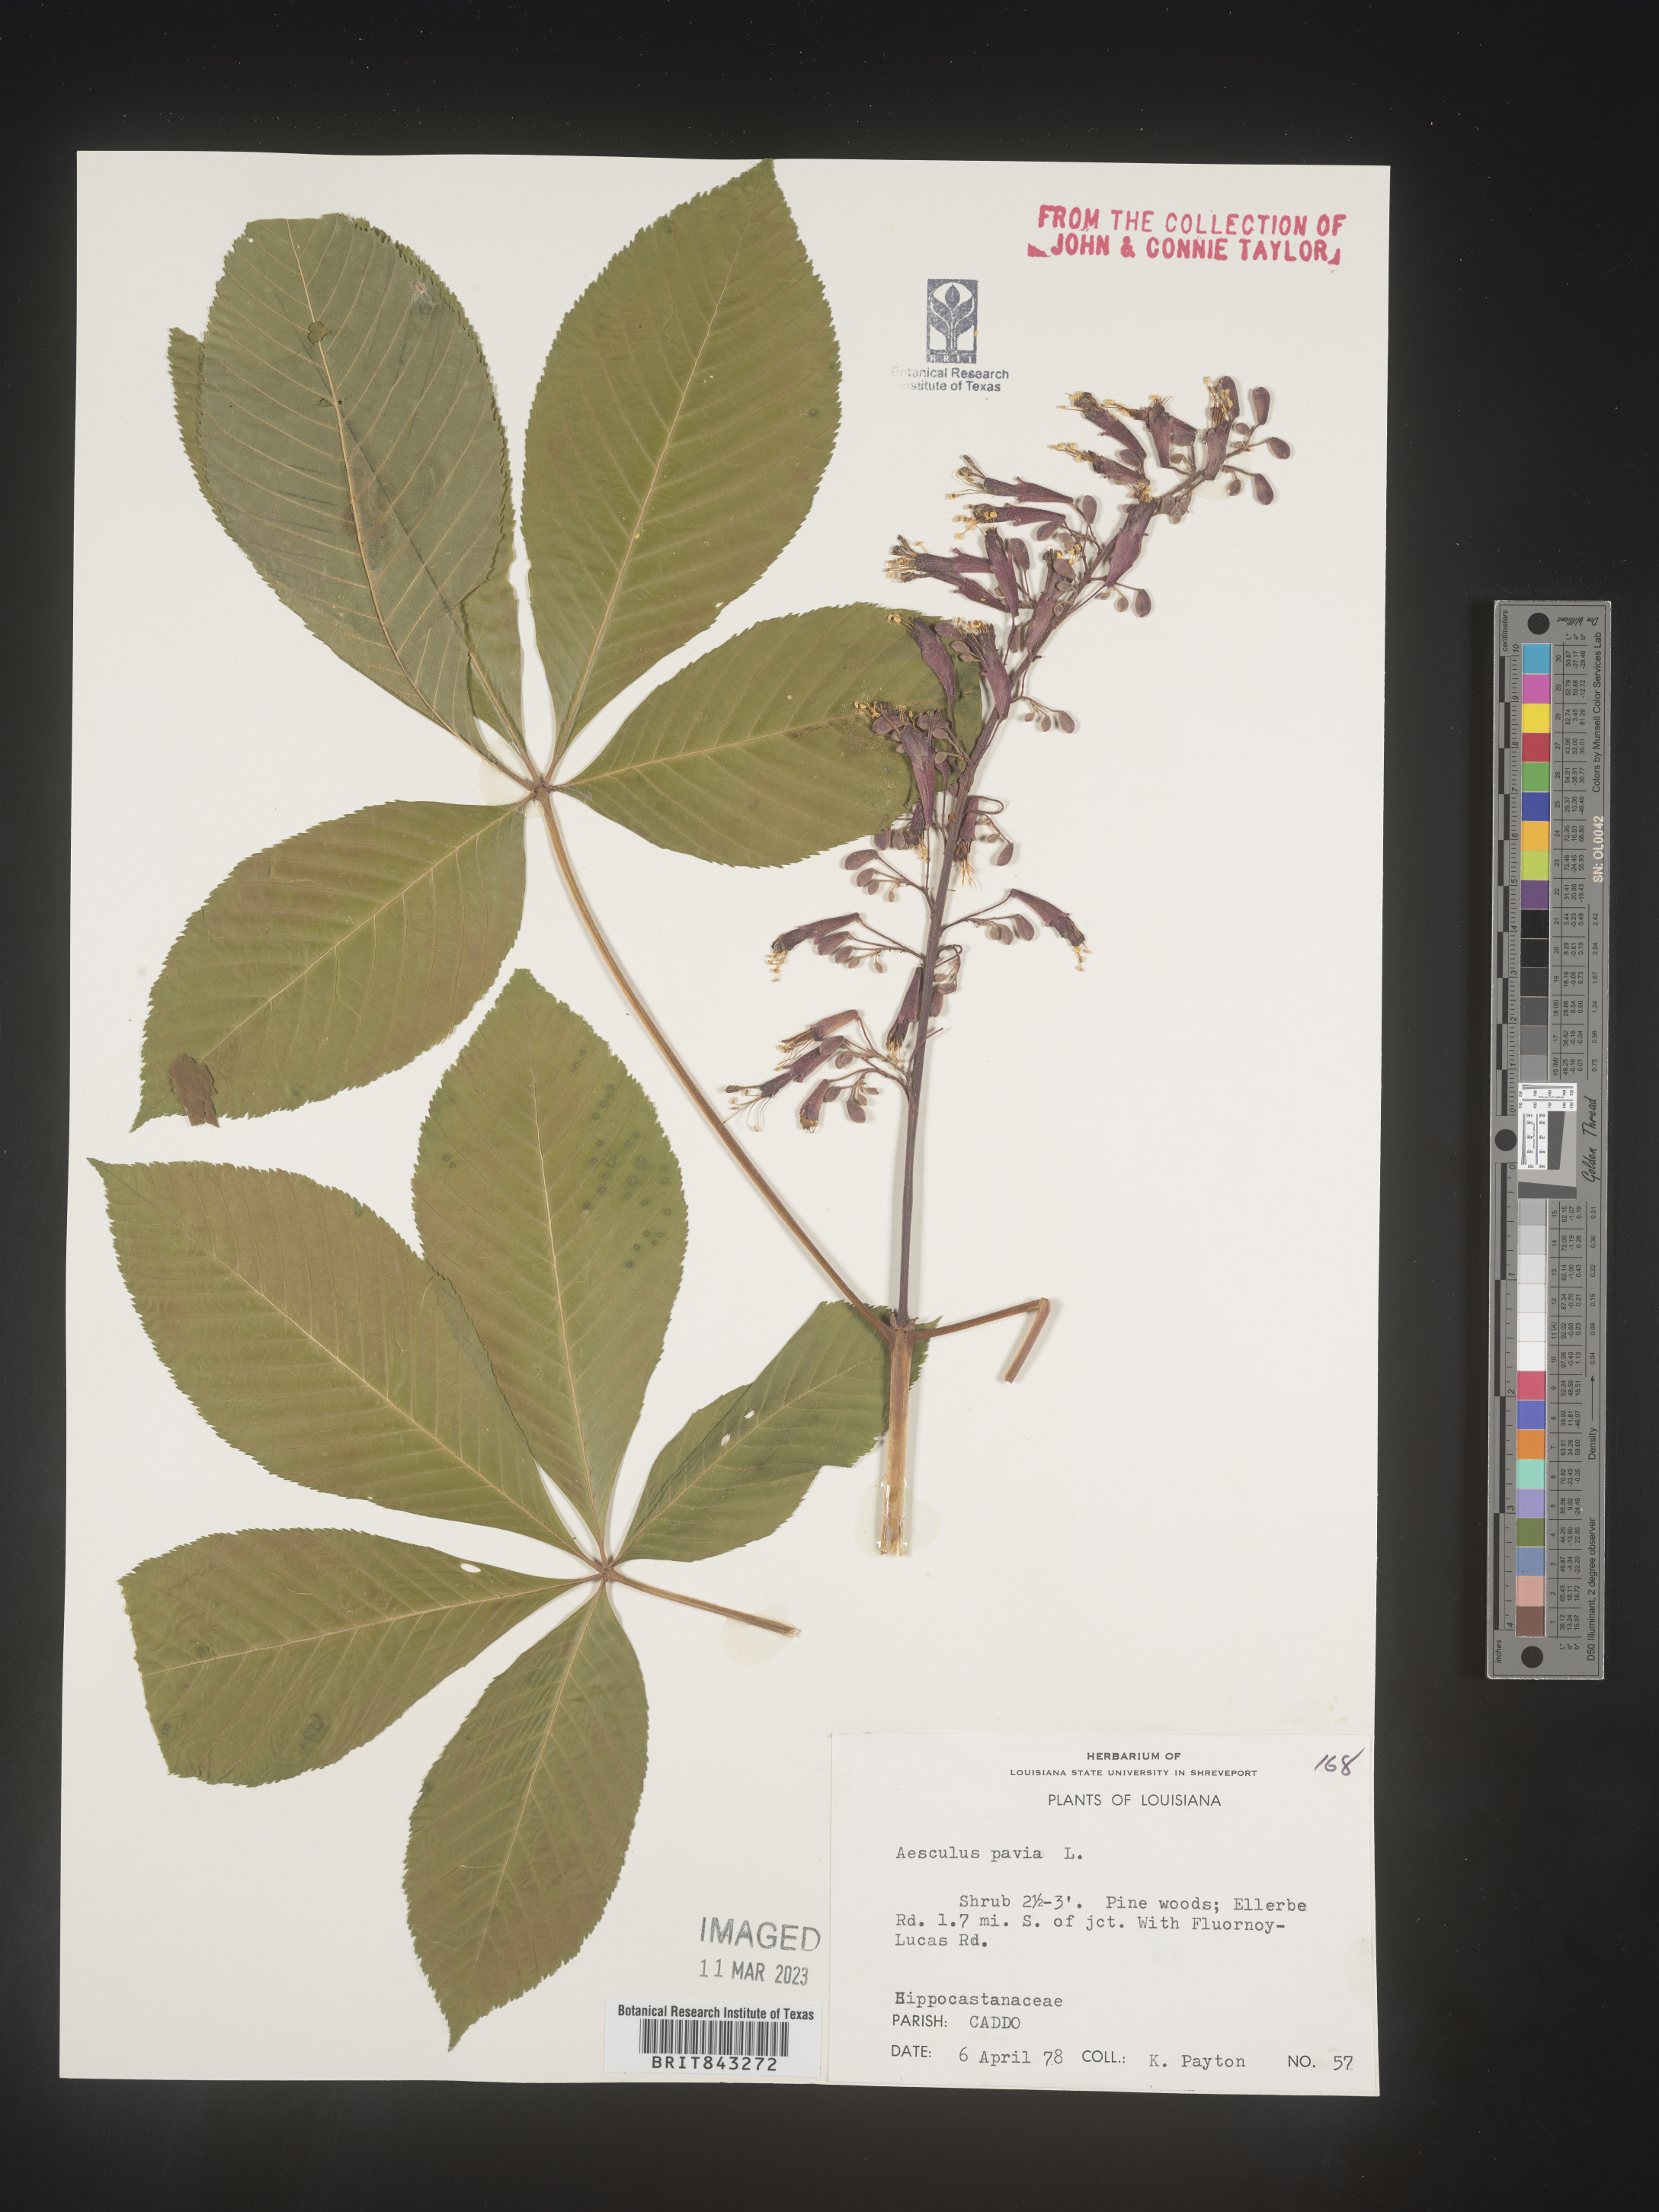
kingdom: Plantae
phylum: Tracheophyta
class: Magnoliopsida
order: Sapindales
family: Sapindaceae
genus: Aesculus
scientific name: Aesculus pavia
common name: Red buckeye
